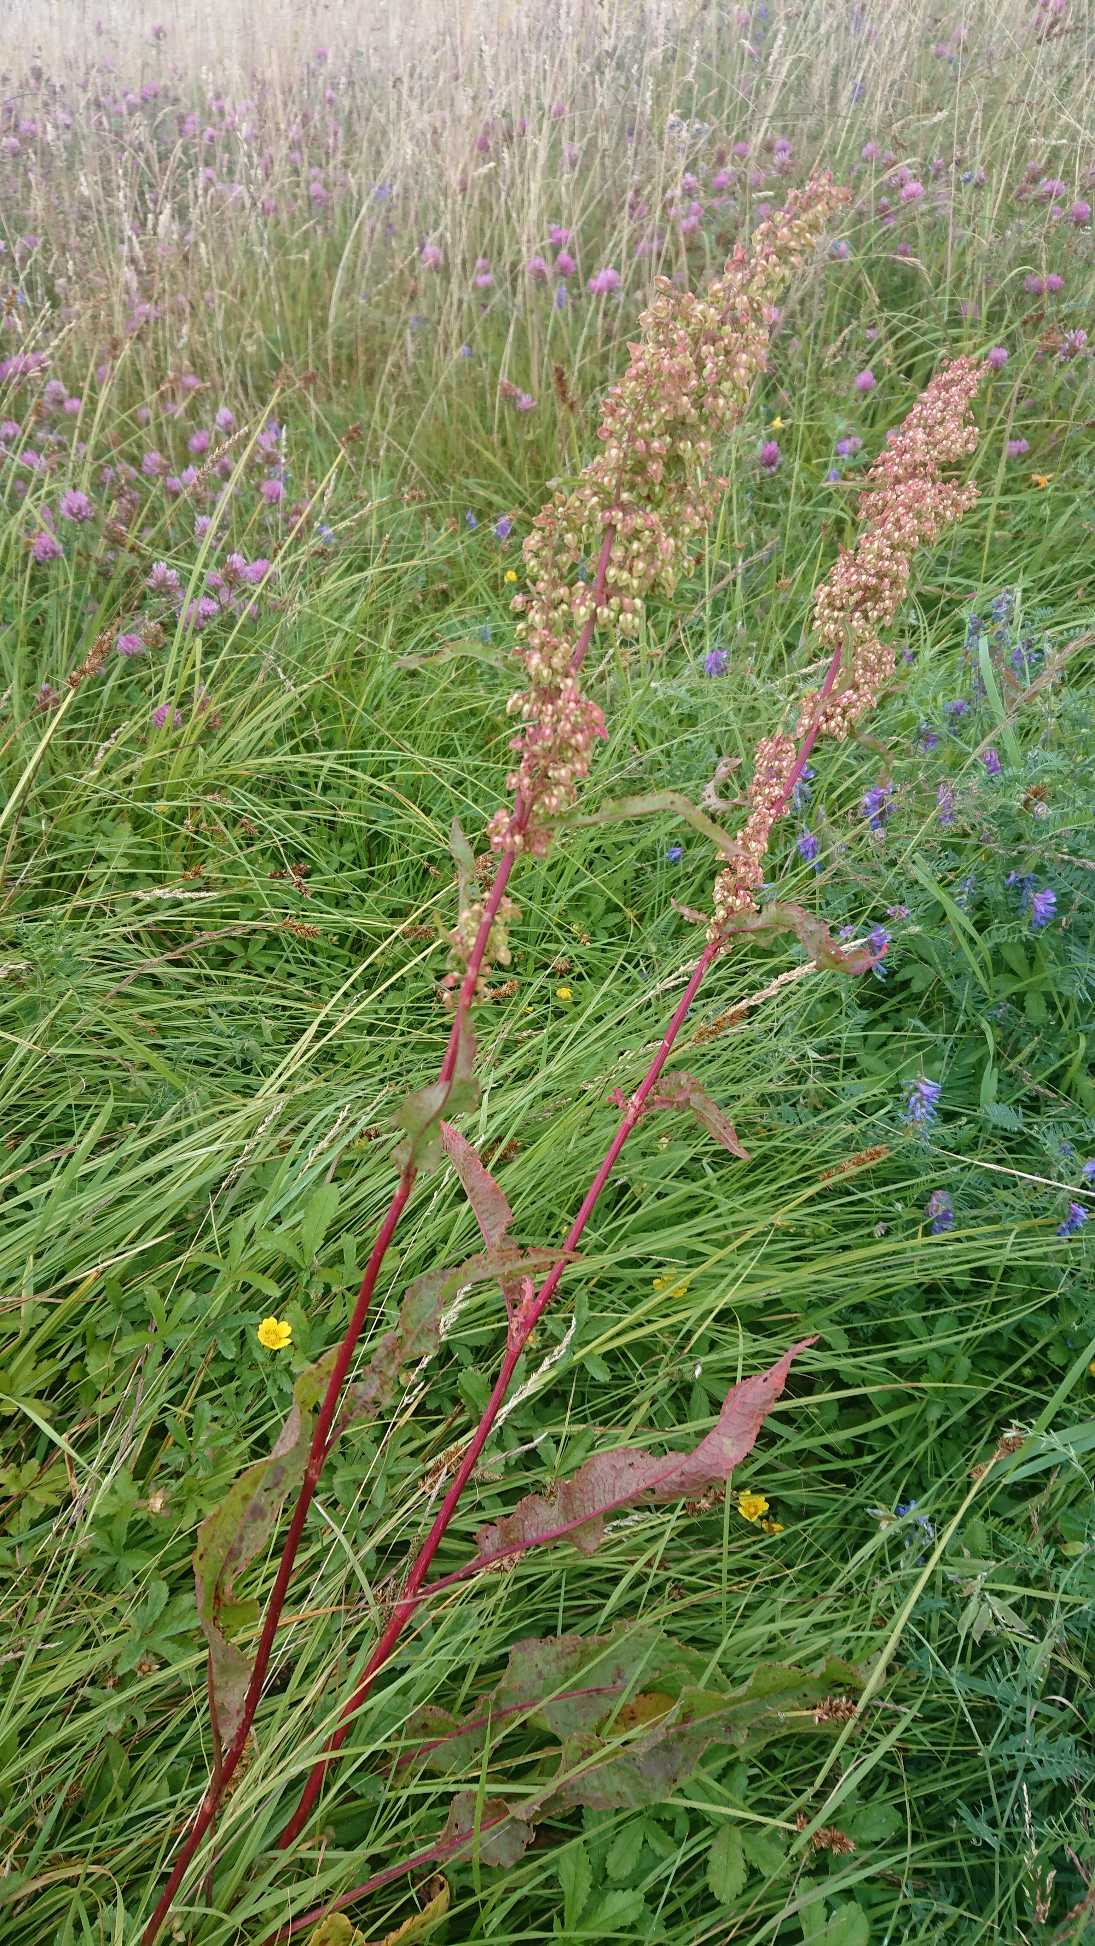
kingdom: Plantae
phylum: Tracheophyta
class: Magnoliopsida
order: Caryophyllales
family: Polygonaceae
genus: Rumex
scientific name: Rumex crispus
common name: Kruset skræppe
